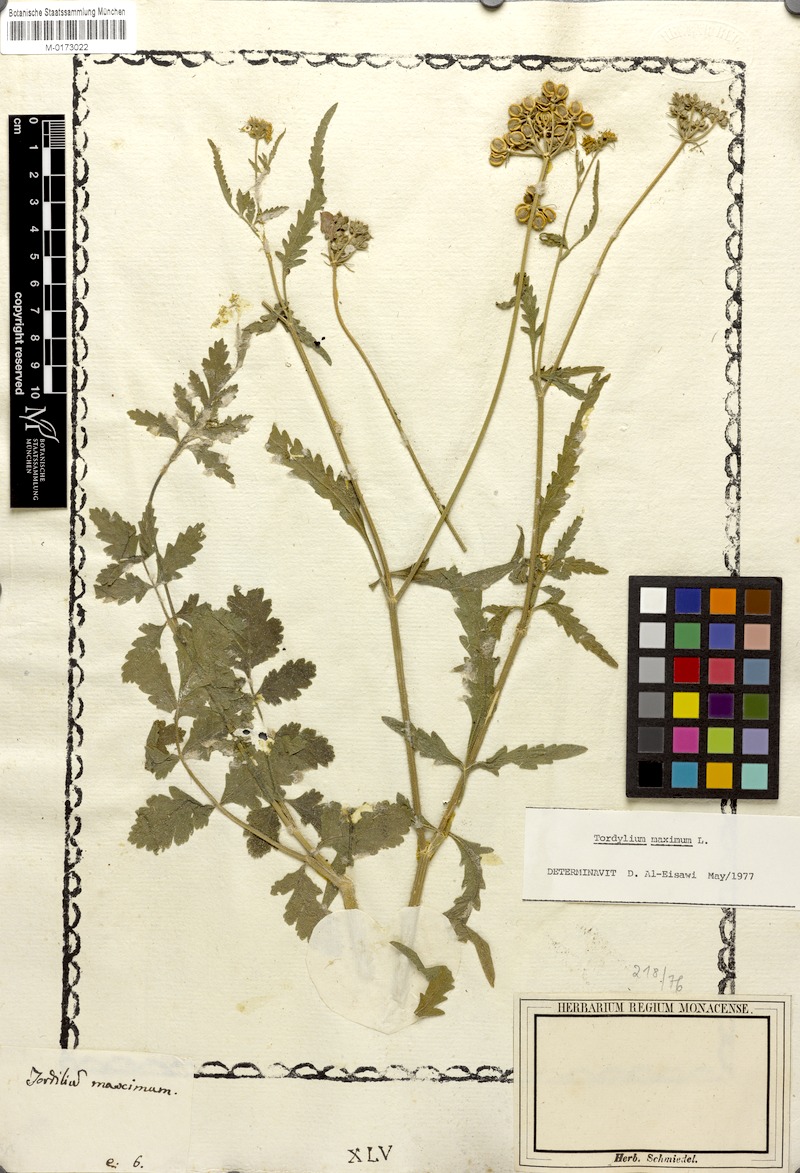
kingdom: Plantae
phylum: Tracheophyta
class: Magnoliopsida
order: Apiales
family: Apiaceae
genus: Tordylium
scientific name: Tordylium maximum
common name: Hartwort
